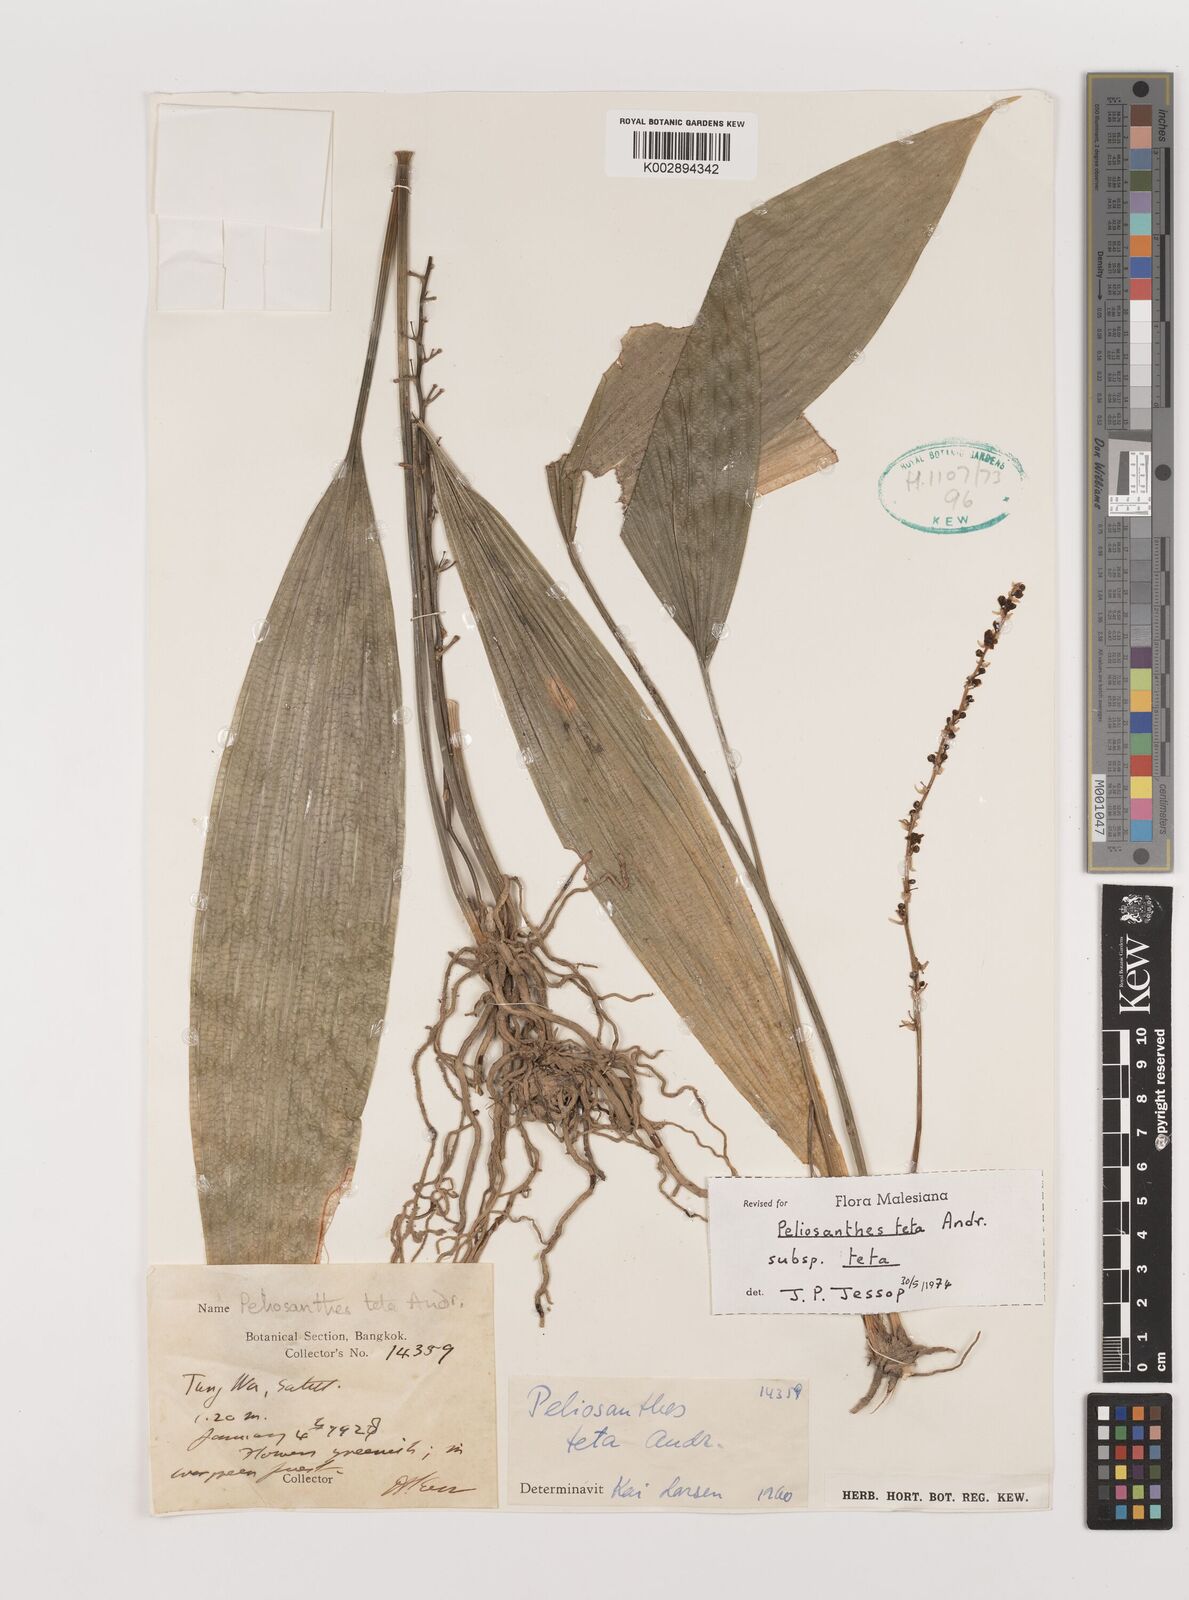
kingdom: Plantae
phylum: Tracheophyta
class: Liliopsida
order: Asparagales
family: Asparagaceae
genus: Peliosanthes
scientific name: Peliosanthes teta
